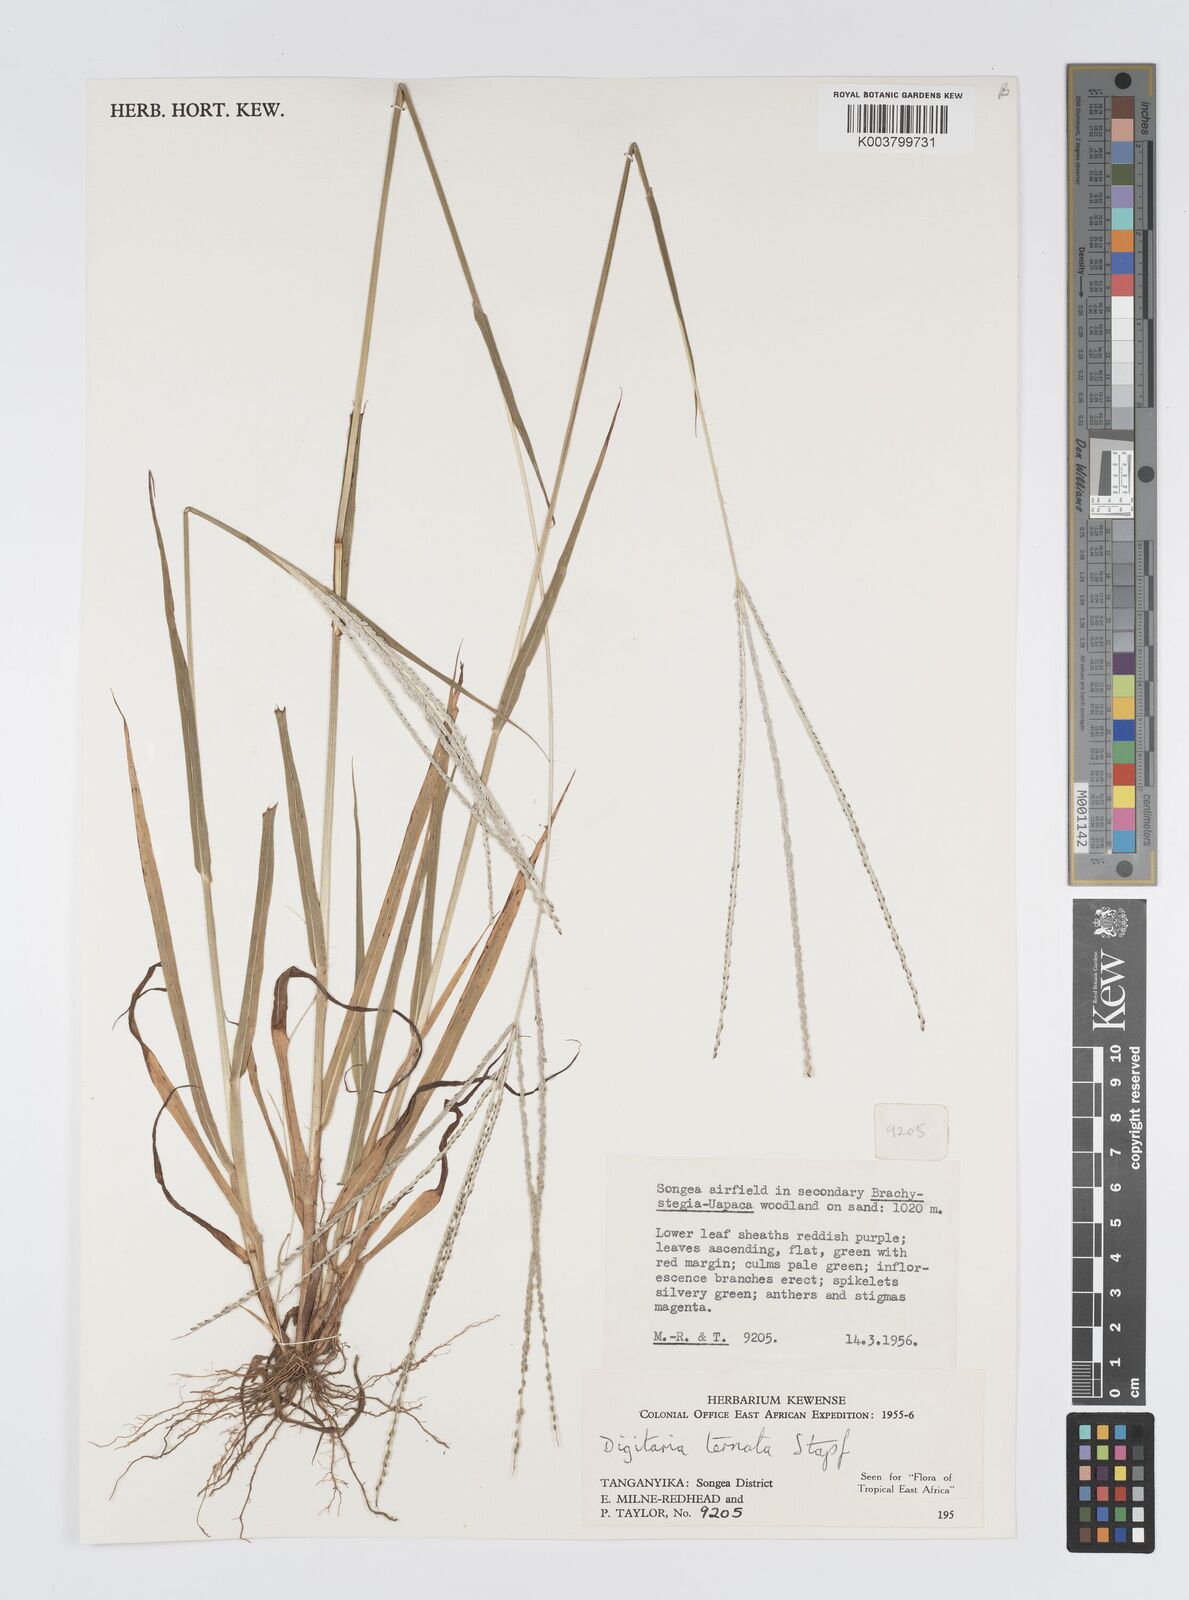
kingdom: Plantae
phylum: Tracheophyta
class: Liliopsida
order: Poales
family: Poaceae
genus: Digitaria
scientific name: Digitaria ternata
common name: Blackseed crabgrass
